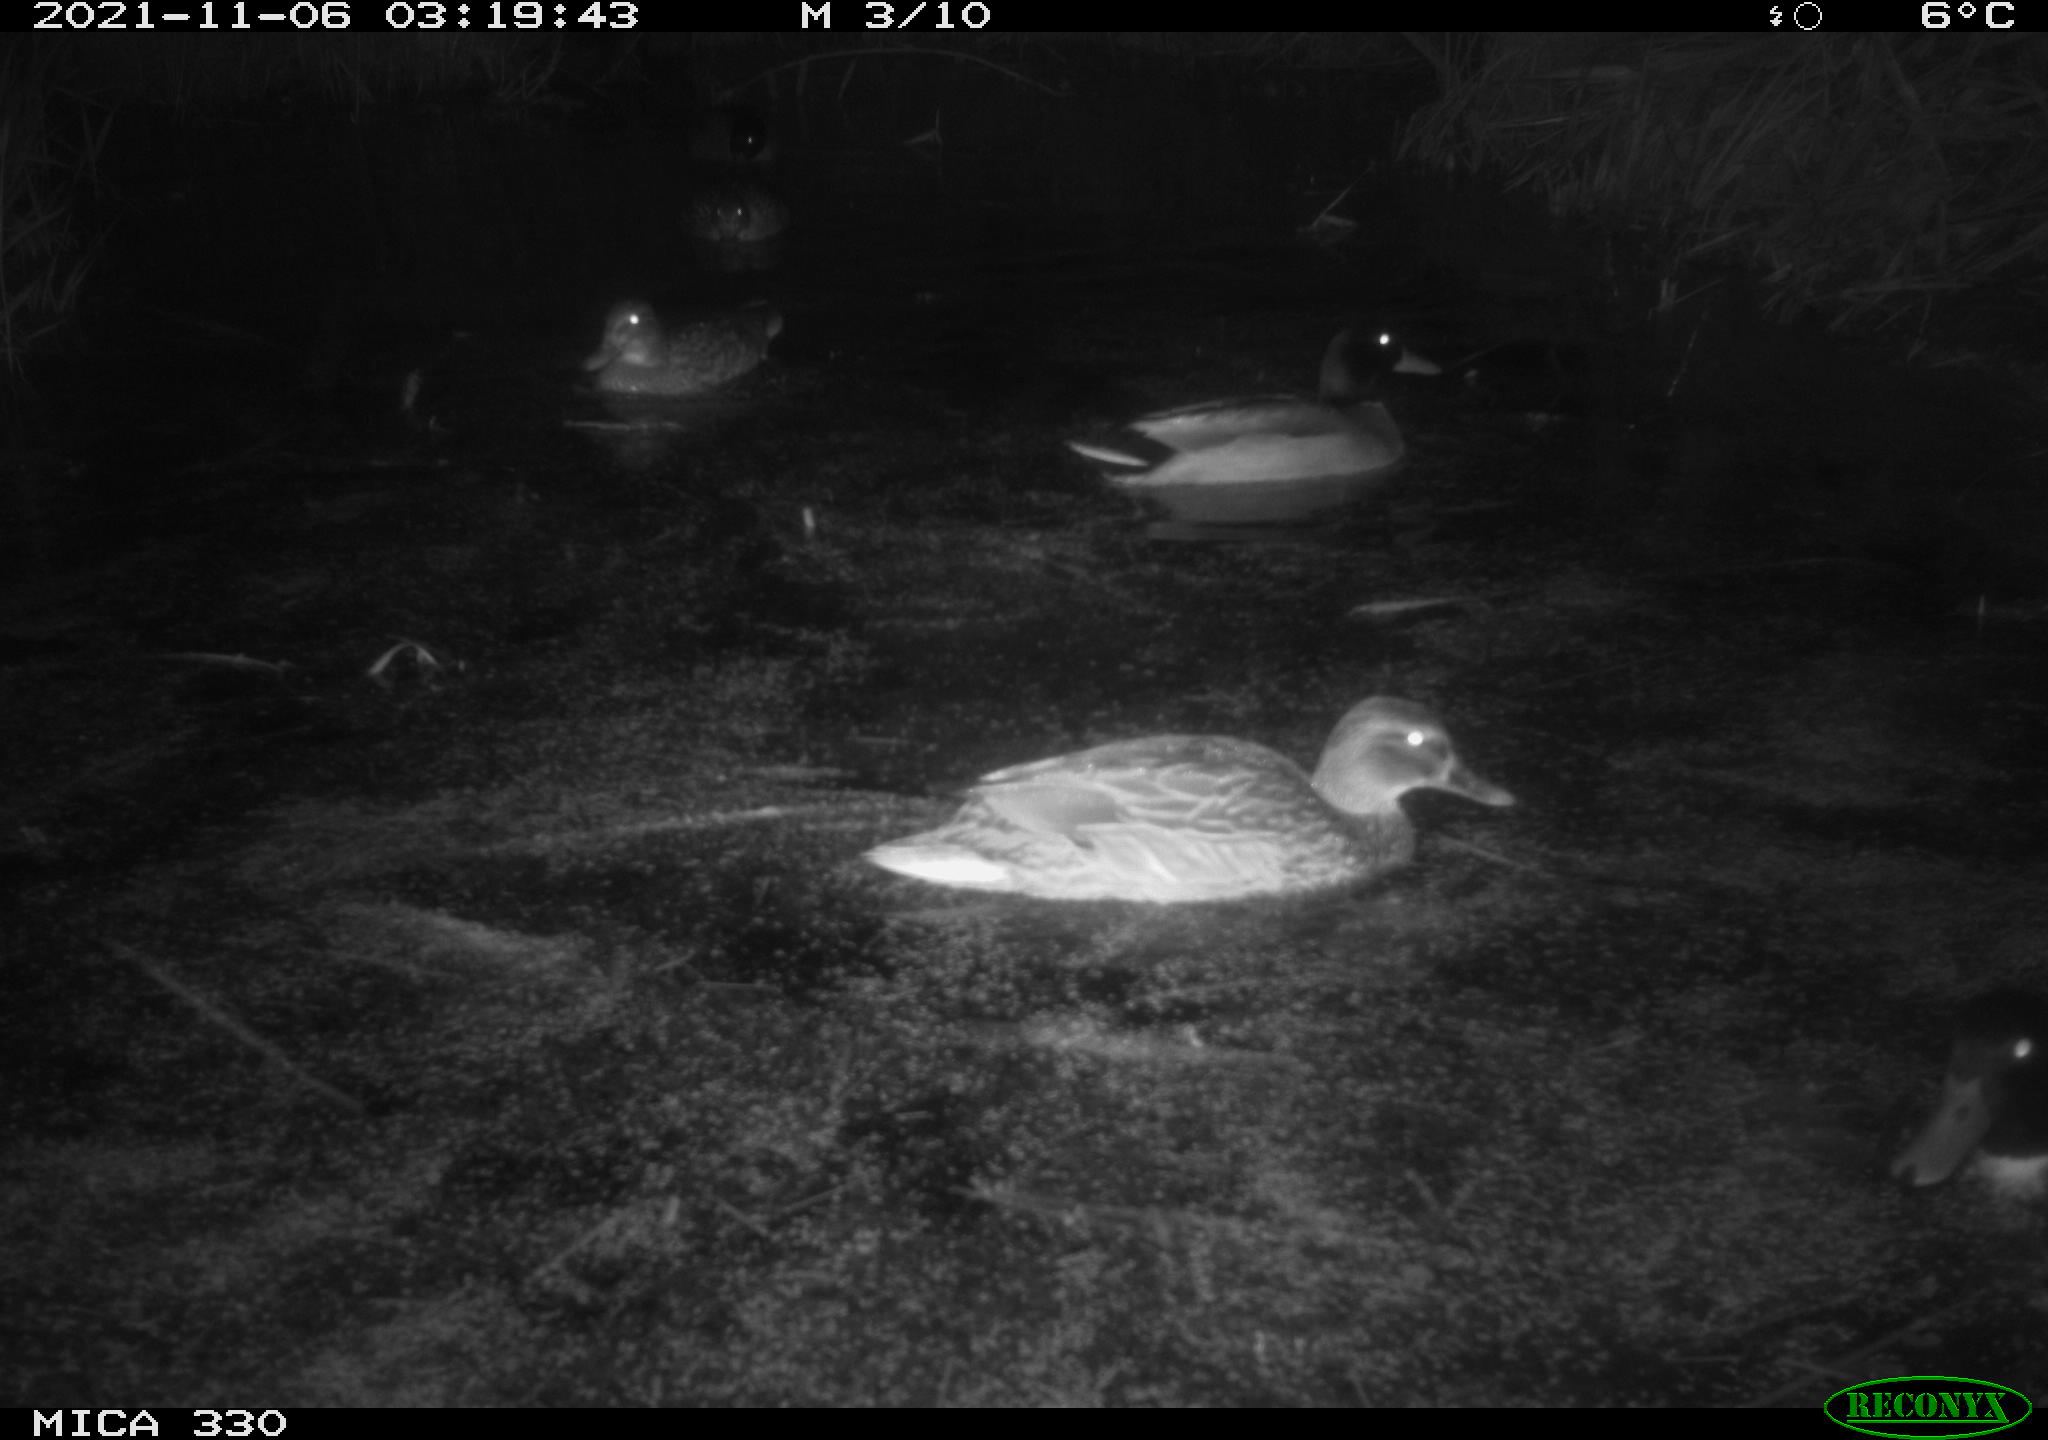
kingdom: Animalia
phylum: Chordata
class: Aves
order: Anseriformes
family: Anatidae
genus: Anas
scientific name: Anas platyrhynchos
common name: Mallard
